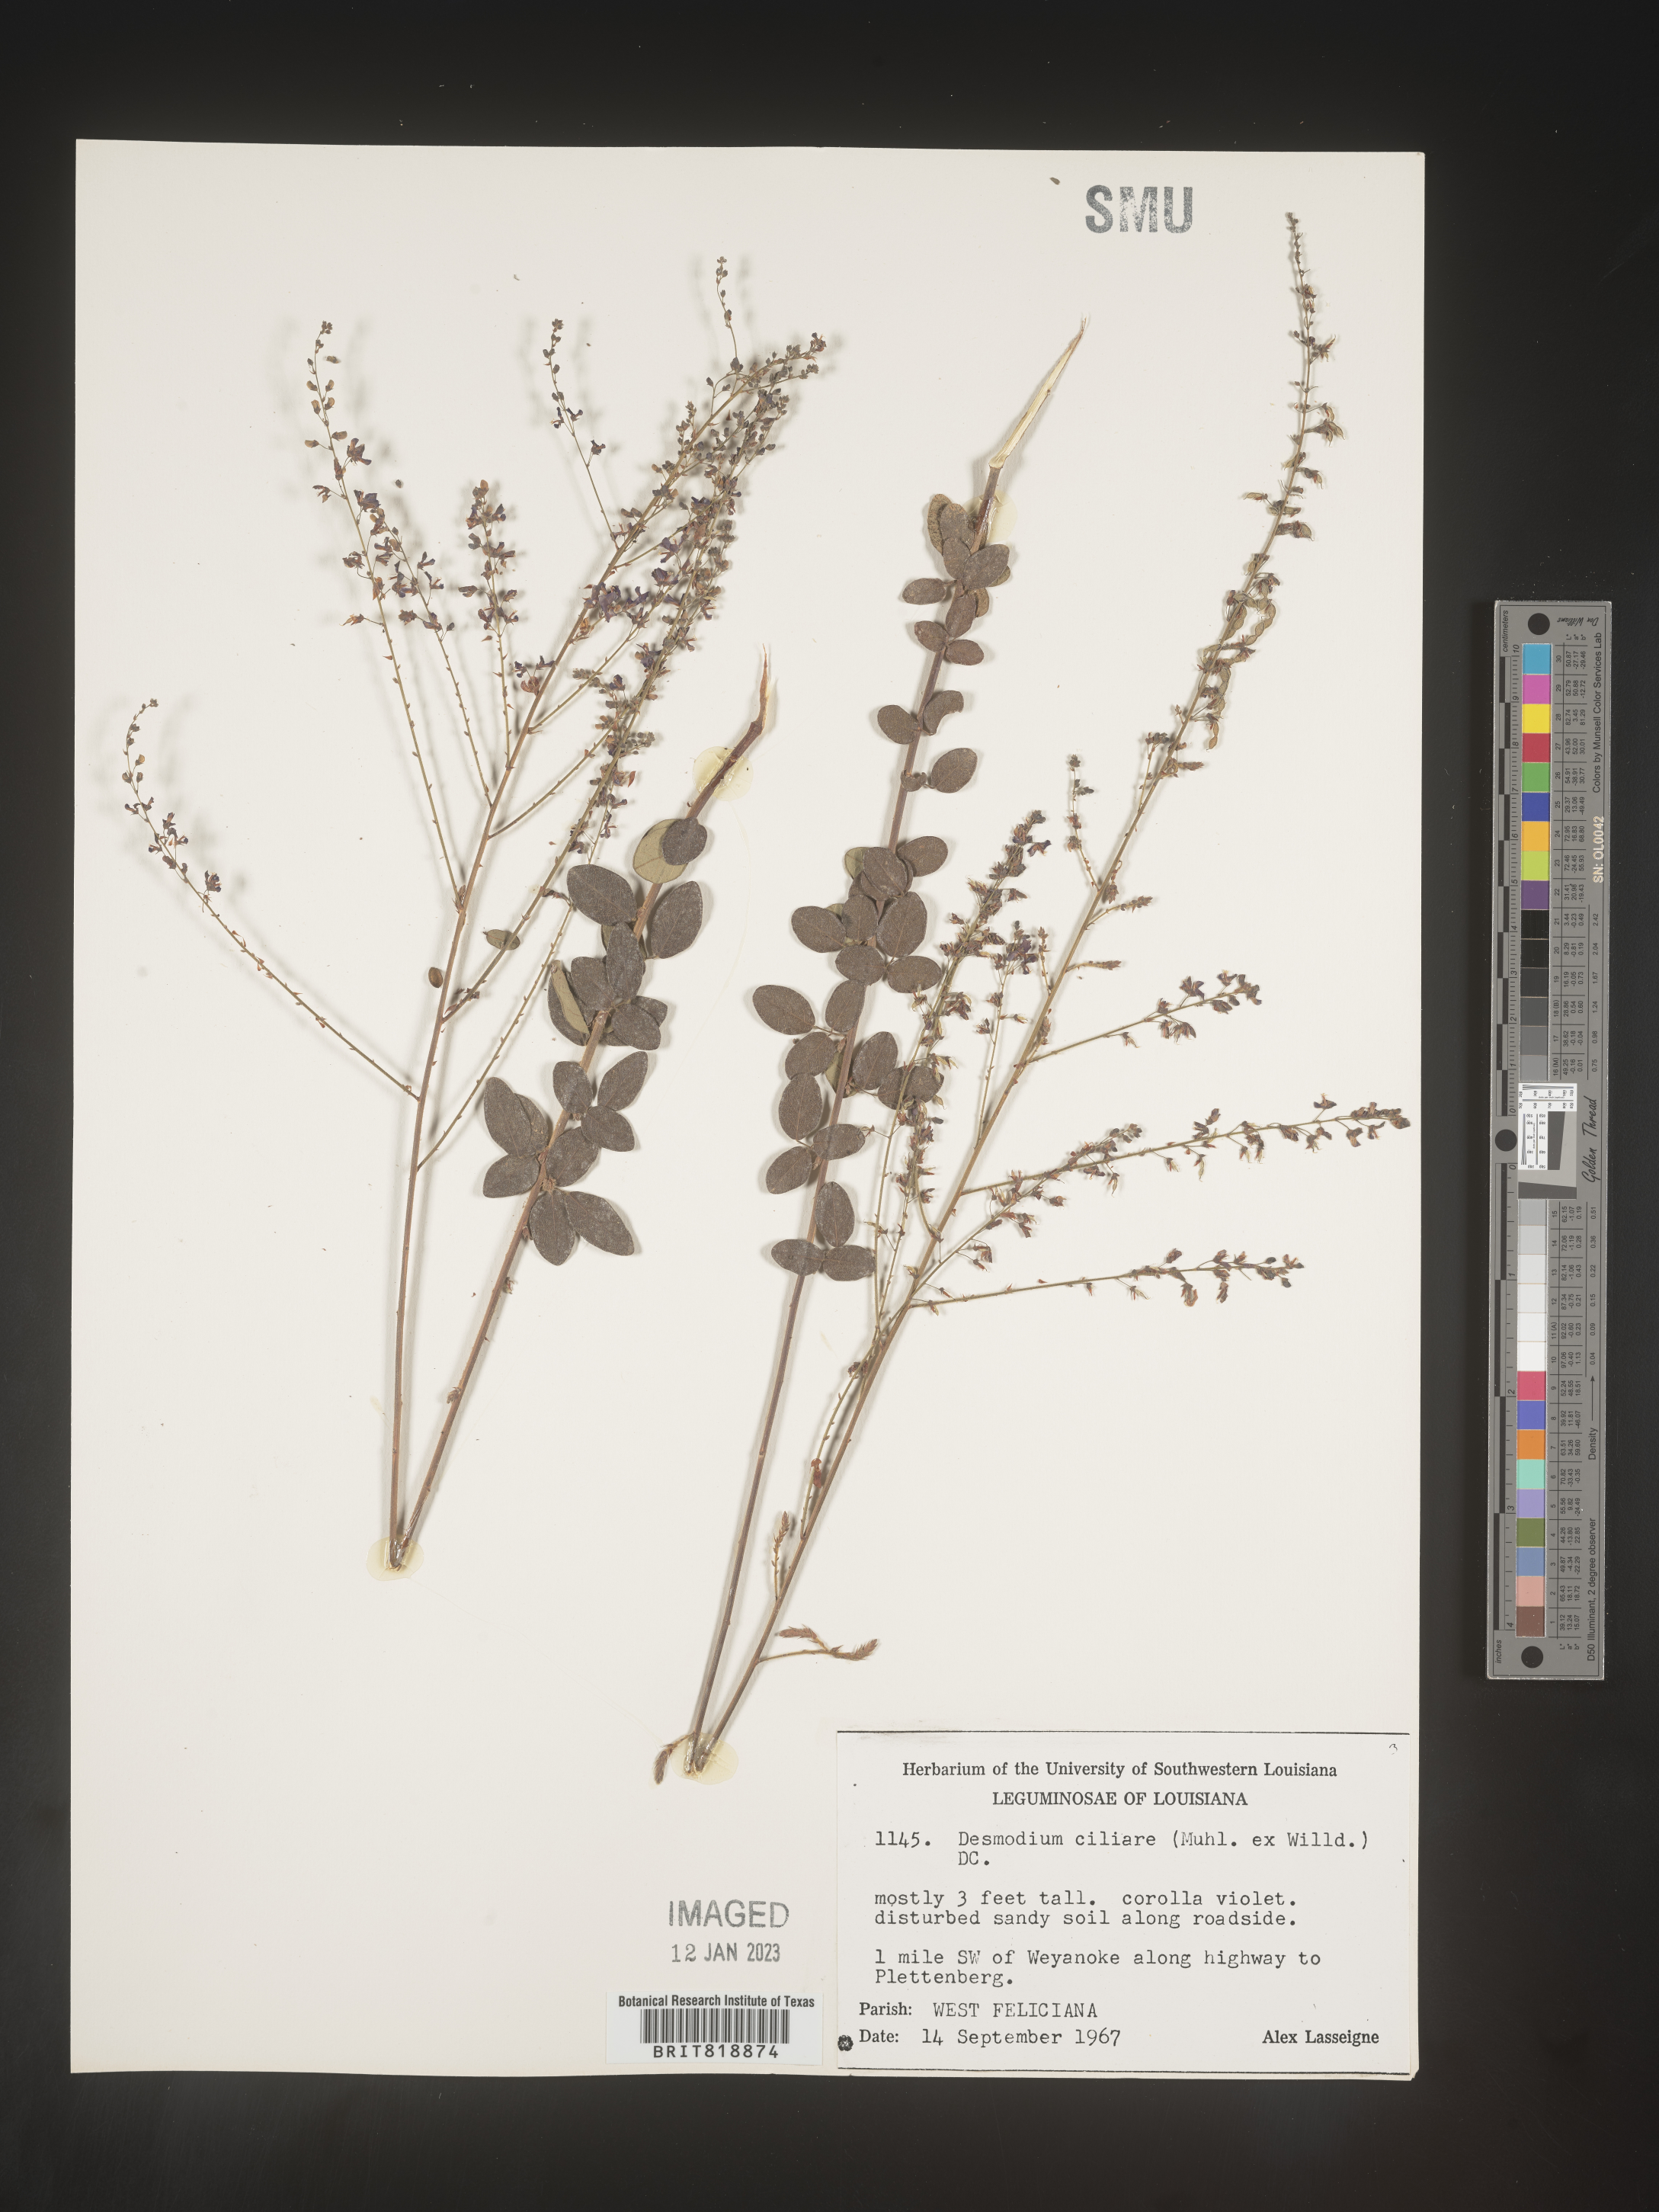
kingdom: Plantae
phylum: Tracheophyta
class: Magnoliopsida
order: Fabales
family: Fabaceae
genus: Desmodium
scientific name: Desmodium ciliare
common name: Hairy small-leaf ticktrefoil
